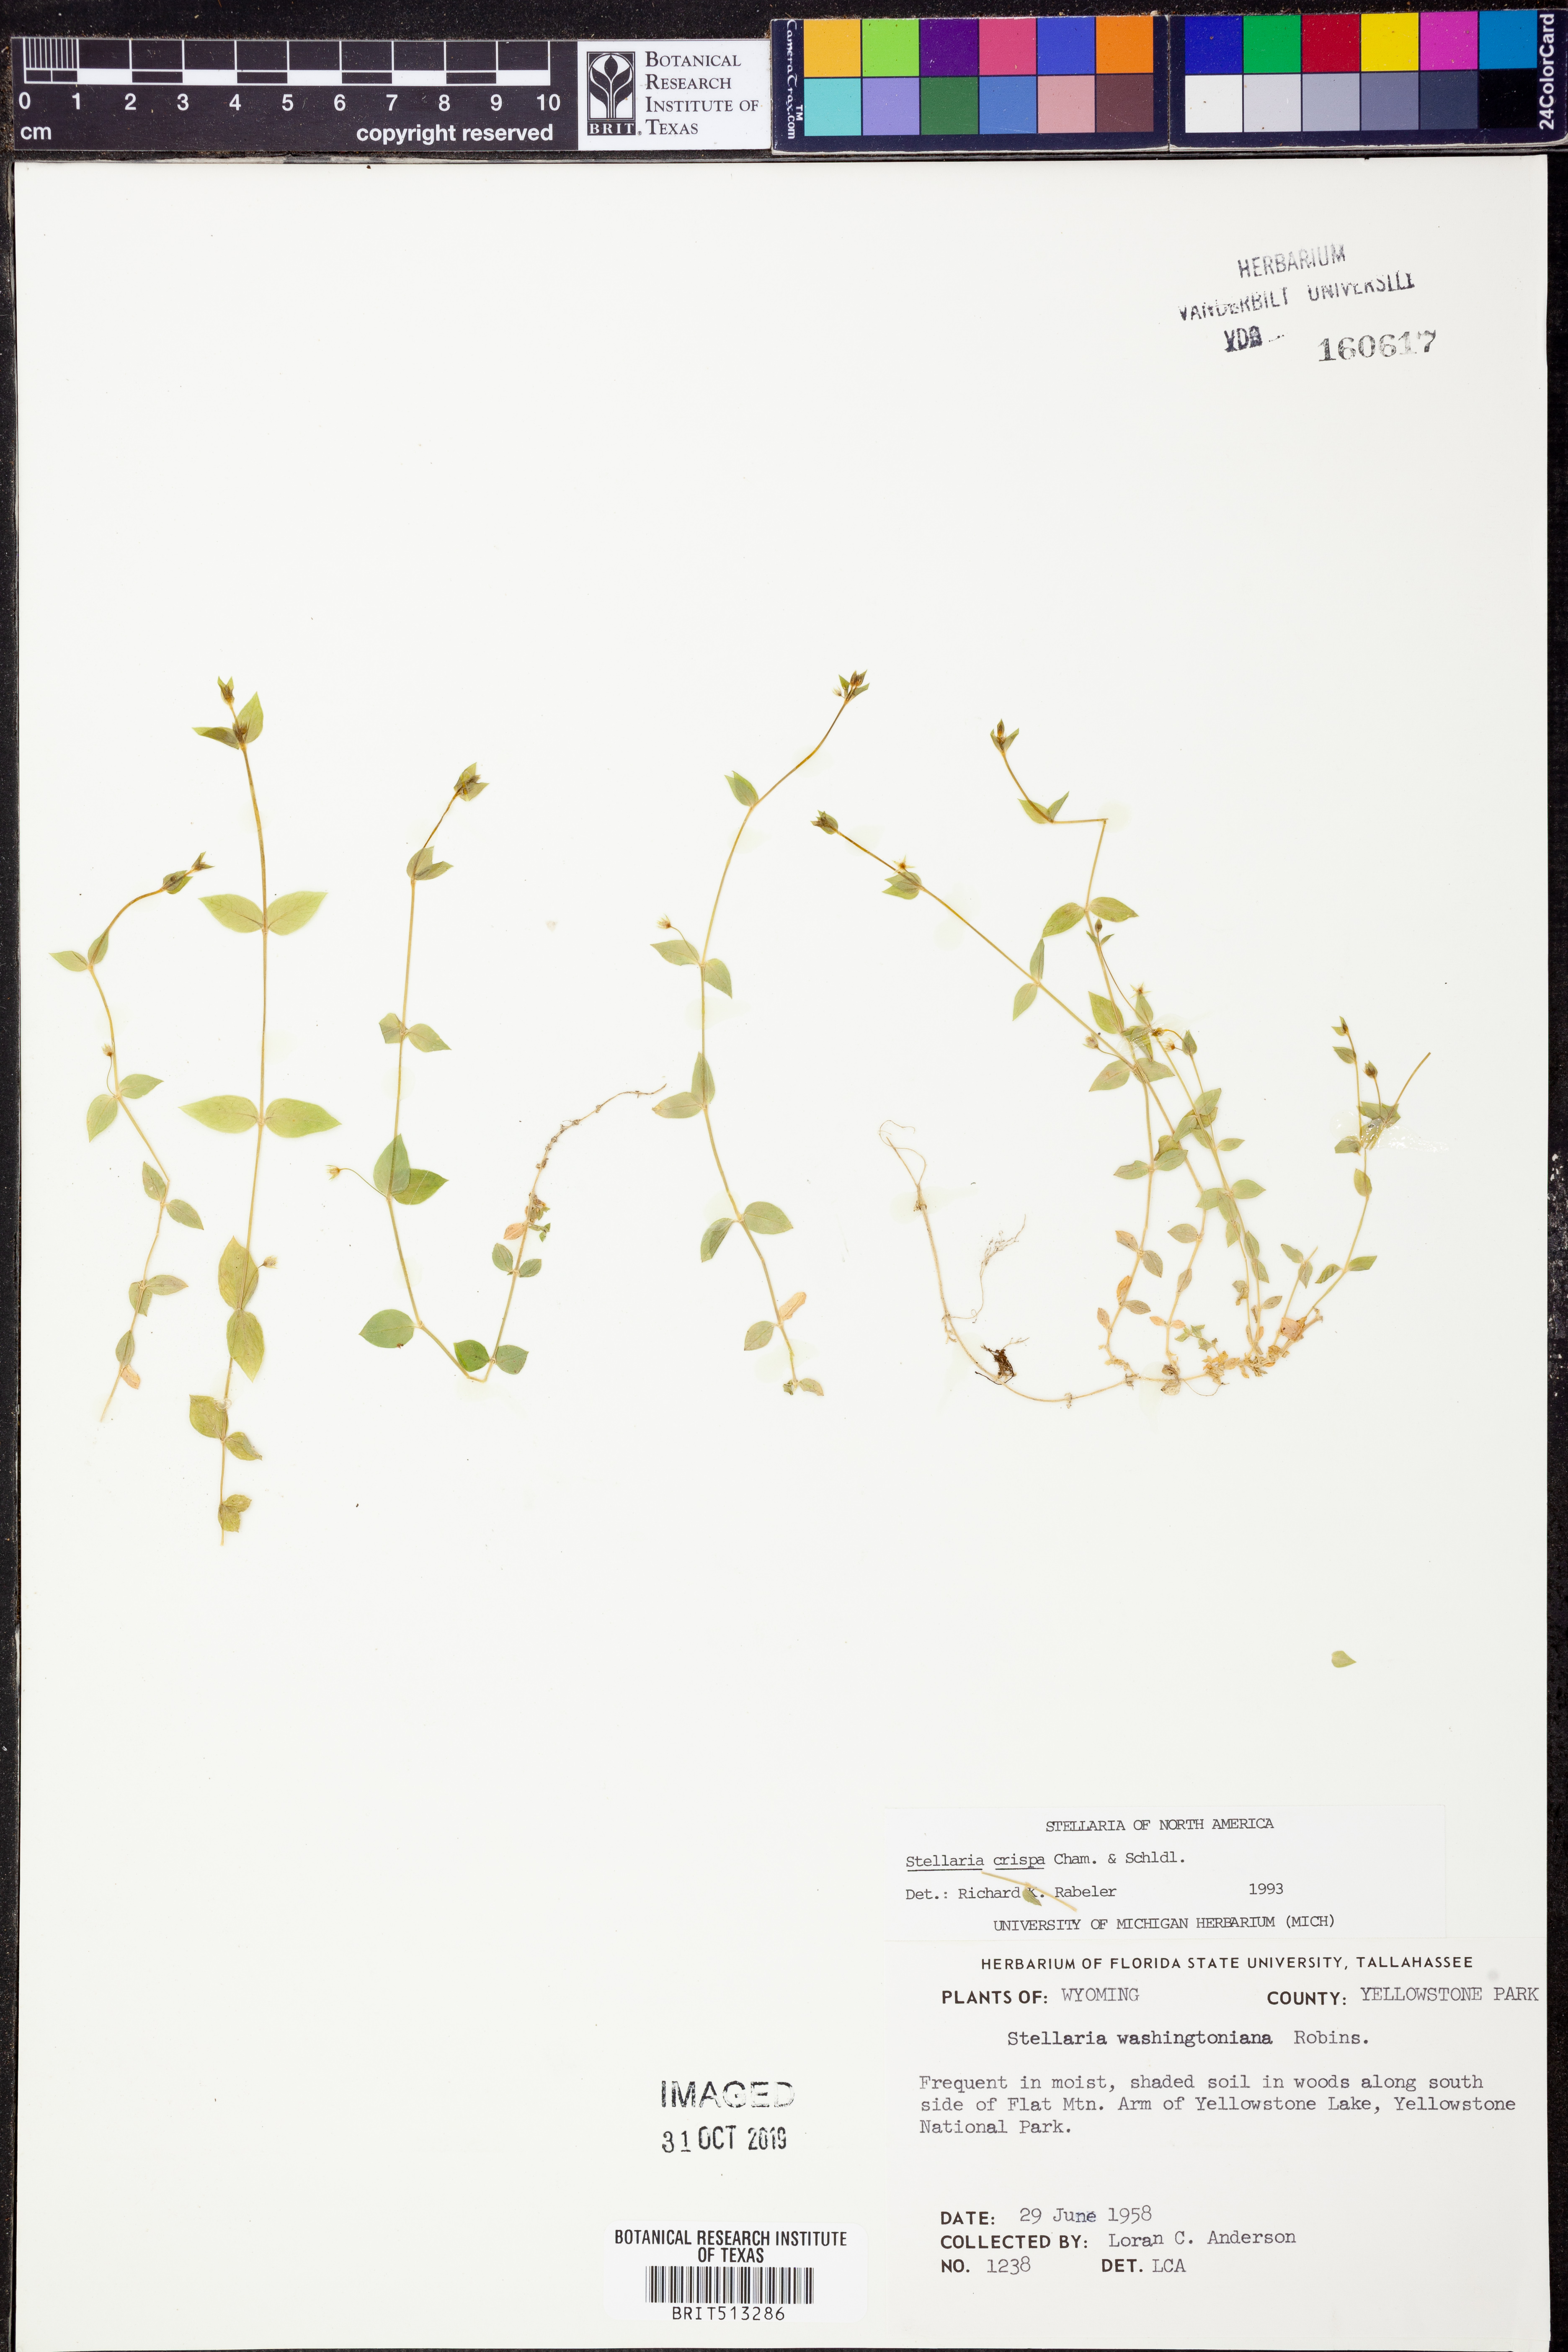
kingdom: Plantae
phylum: Tracheophyta
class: Magnoliopsida
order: Caryophyllales
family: Caryophyllaceae
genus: Stellaria
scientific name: Stellaria crispa
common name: Crimped stitchwort
